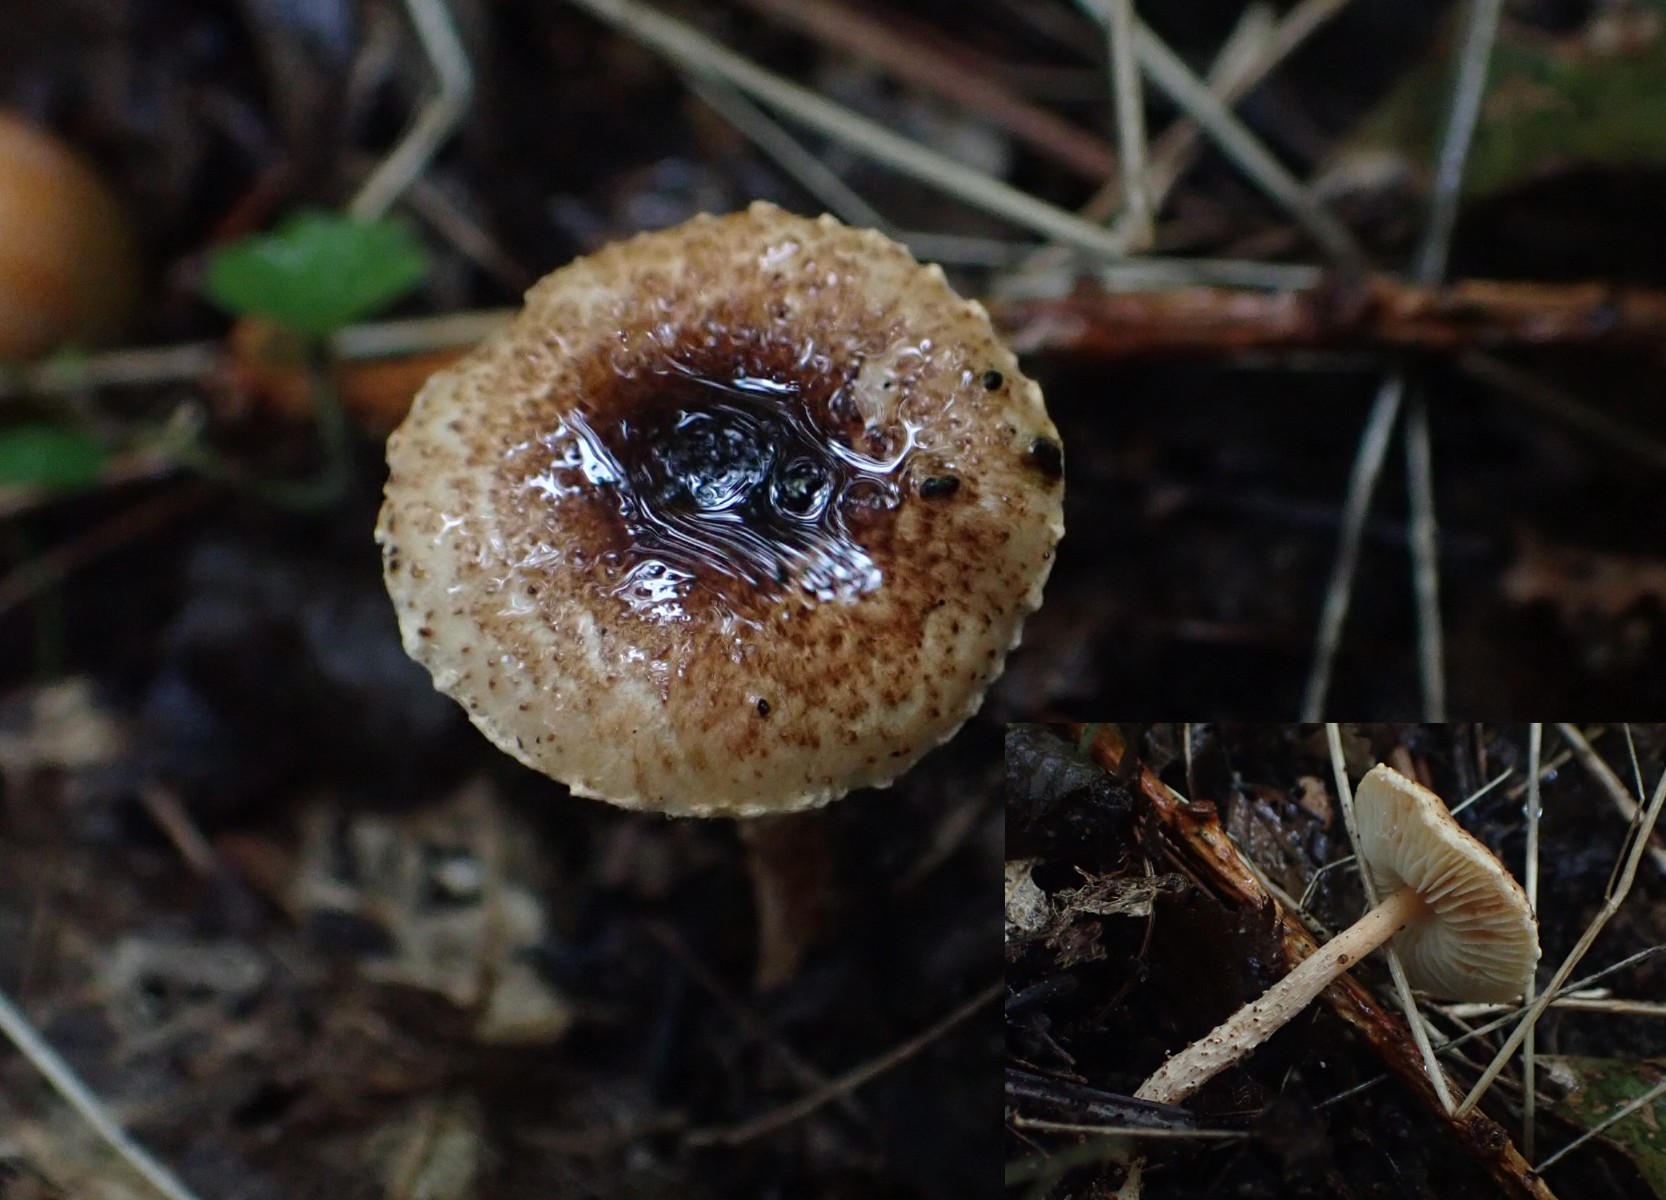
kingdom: Fungi
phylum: Basidiomycota
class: Agaricomycetes
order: Agaricales
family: Agaricaceae
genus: Lepiota
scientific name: Lepiota castanea
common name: kastaniebrun parasolhat
